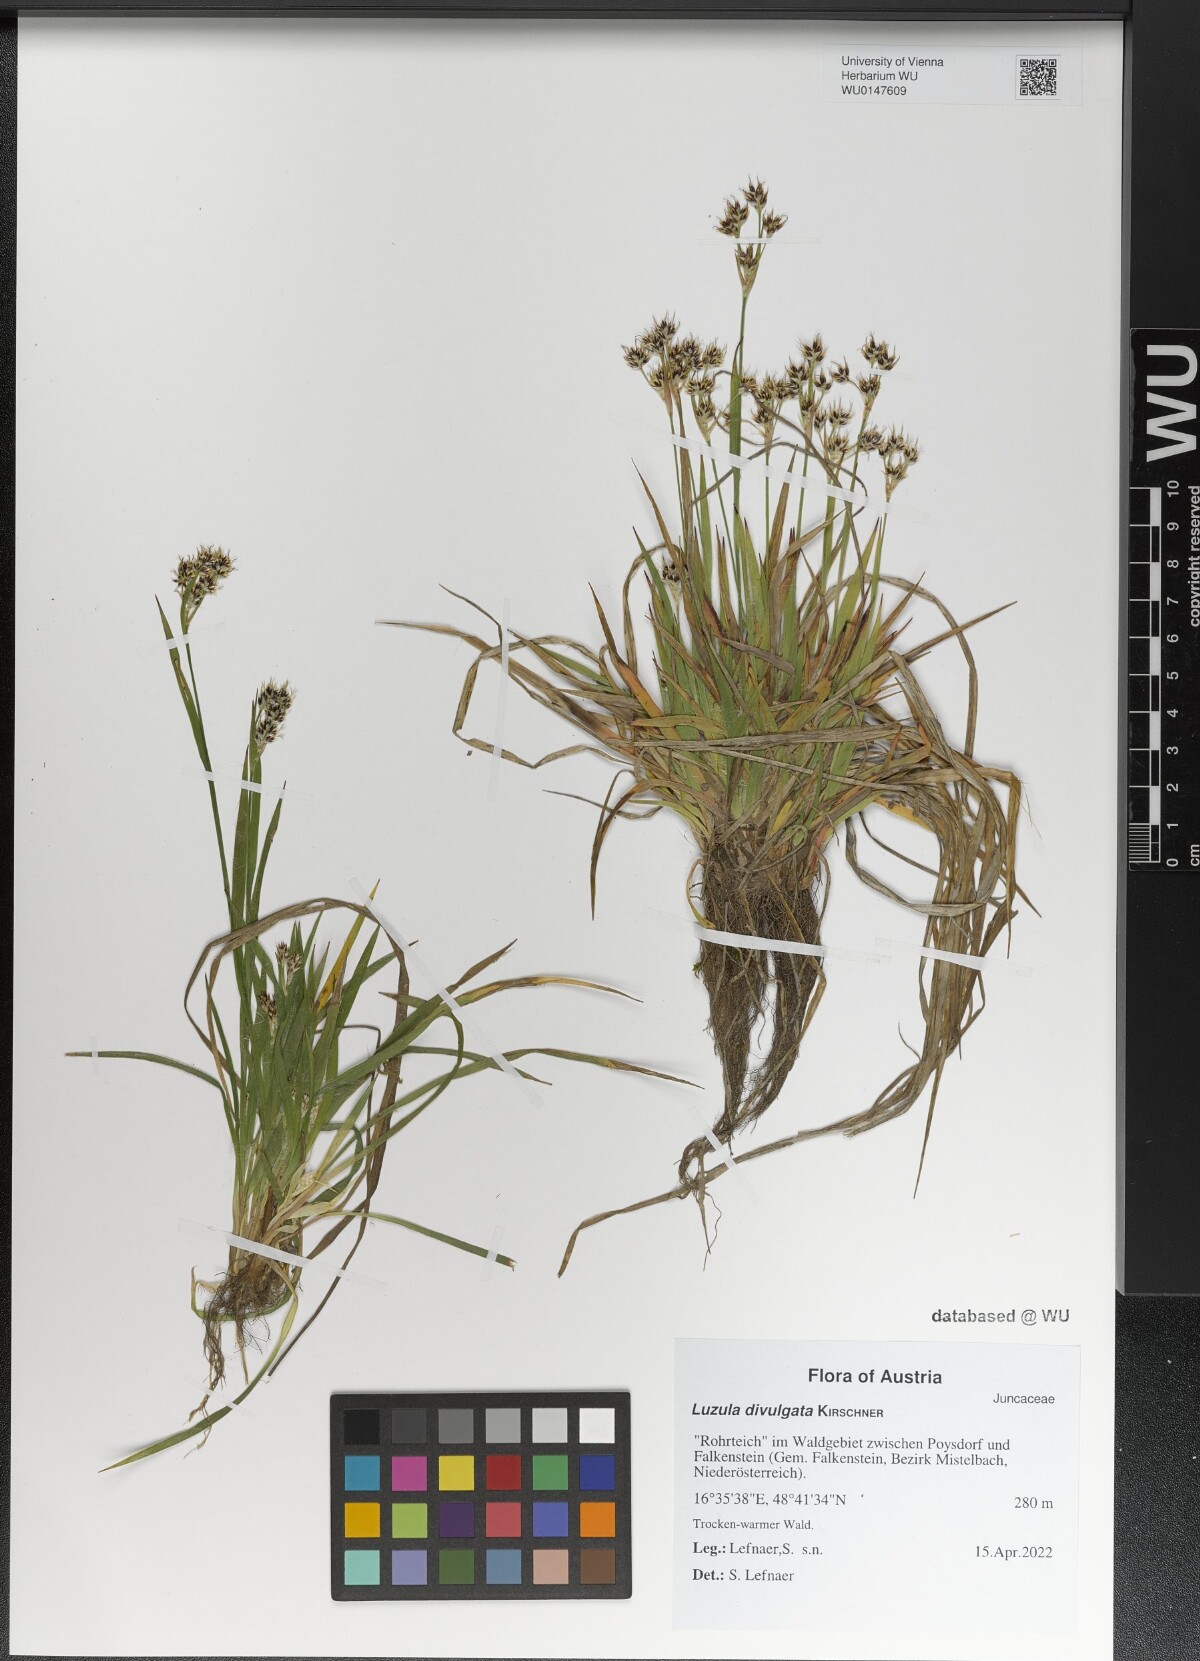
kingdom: Plantae
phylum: Tracheophyta
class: Liliopsida
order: Poales
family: Juncaceae
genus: Luzula
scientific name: Luzula divulgata
